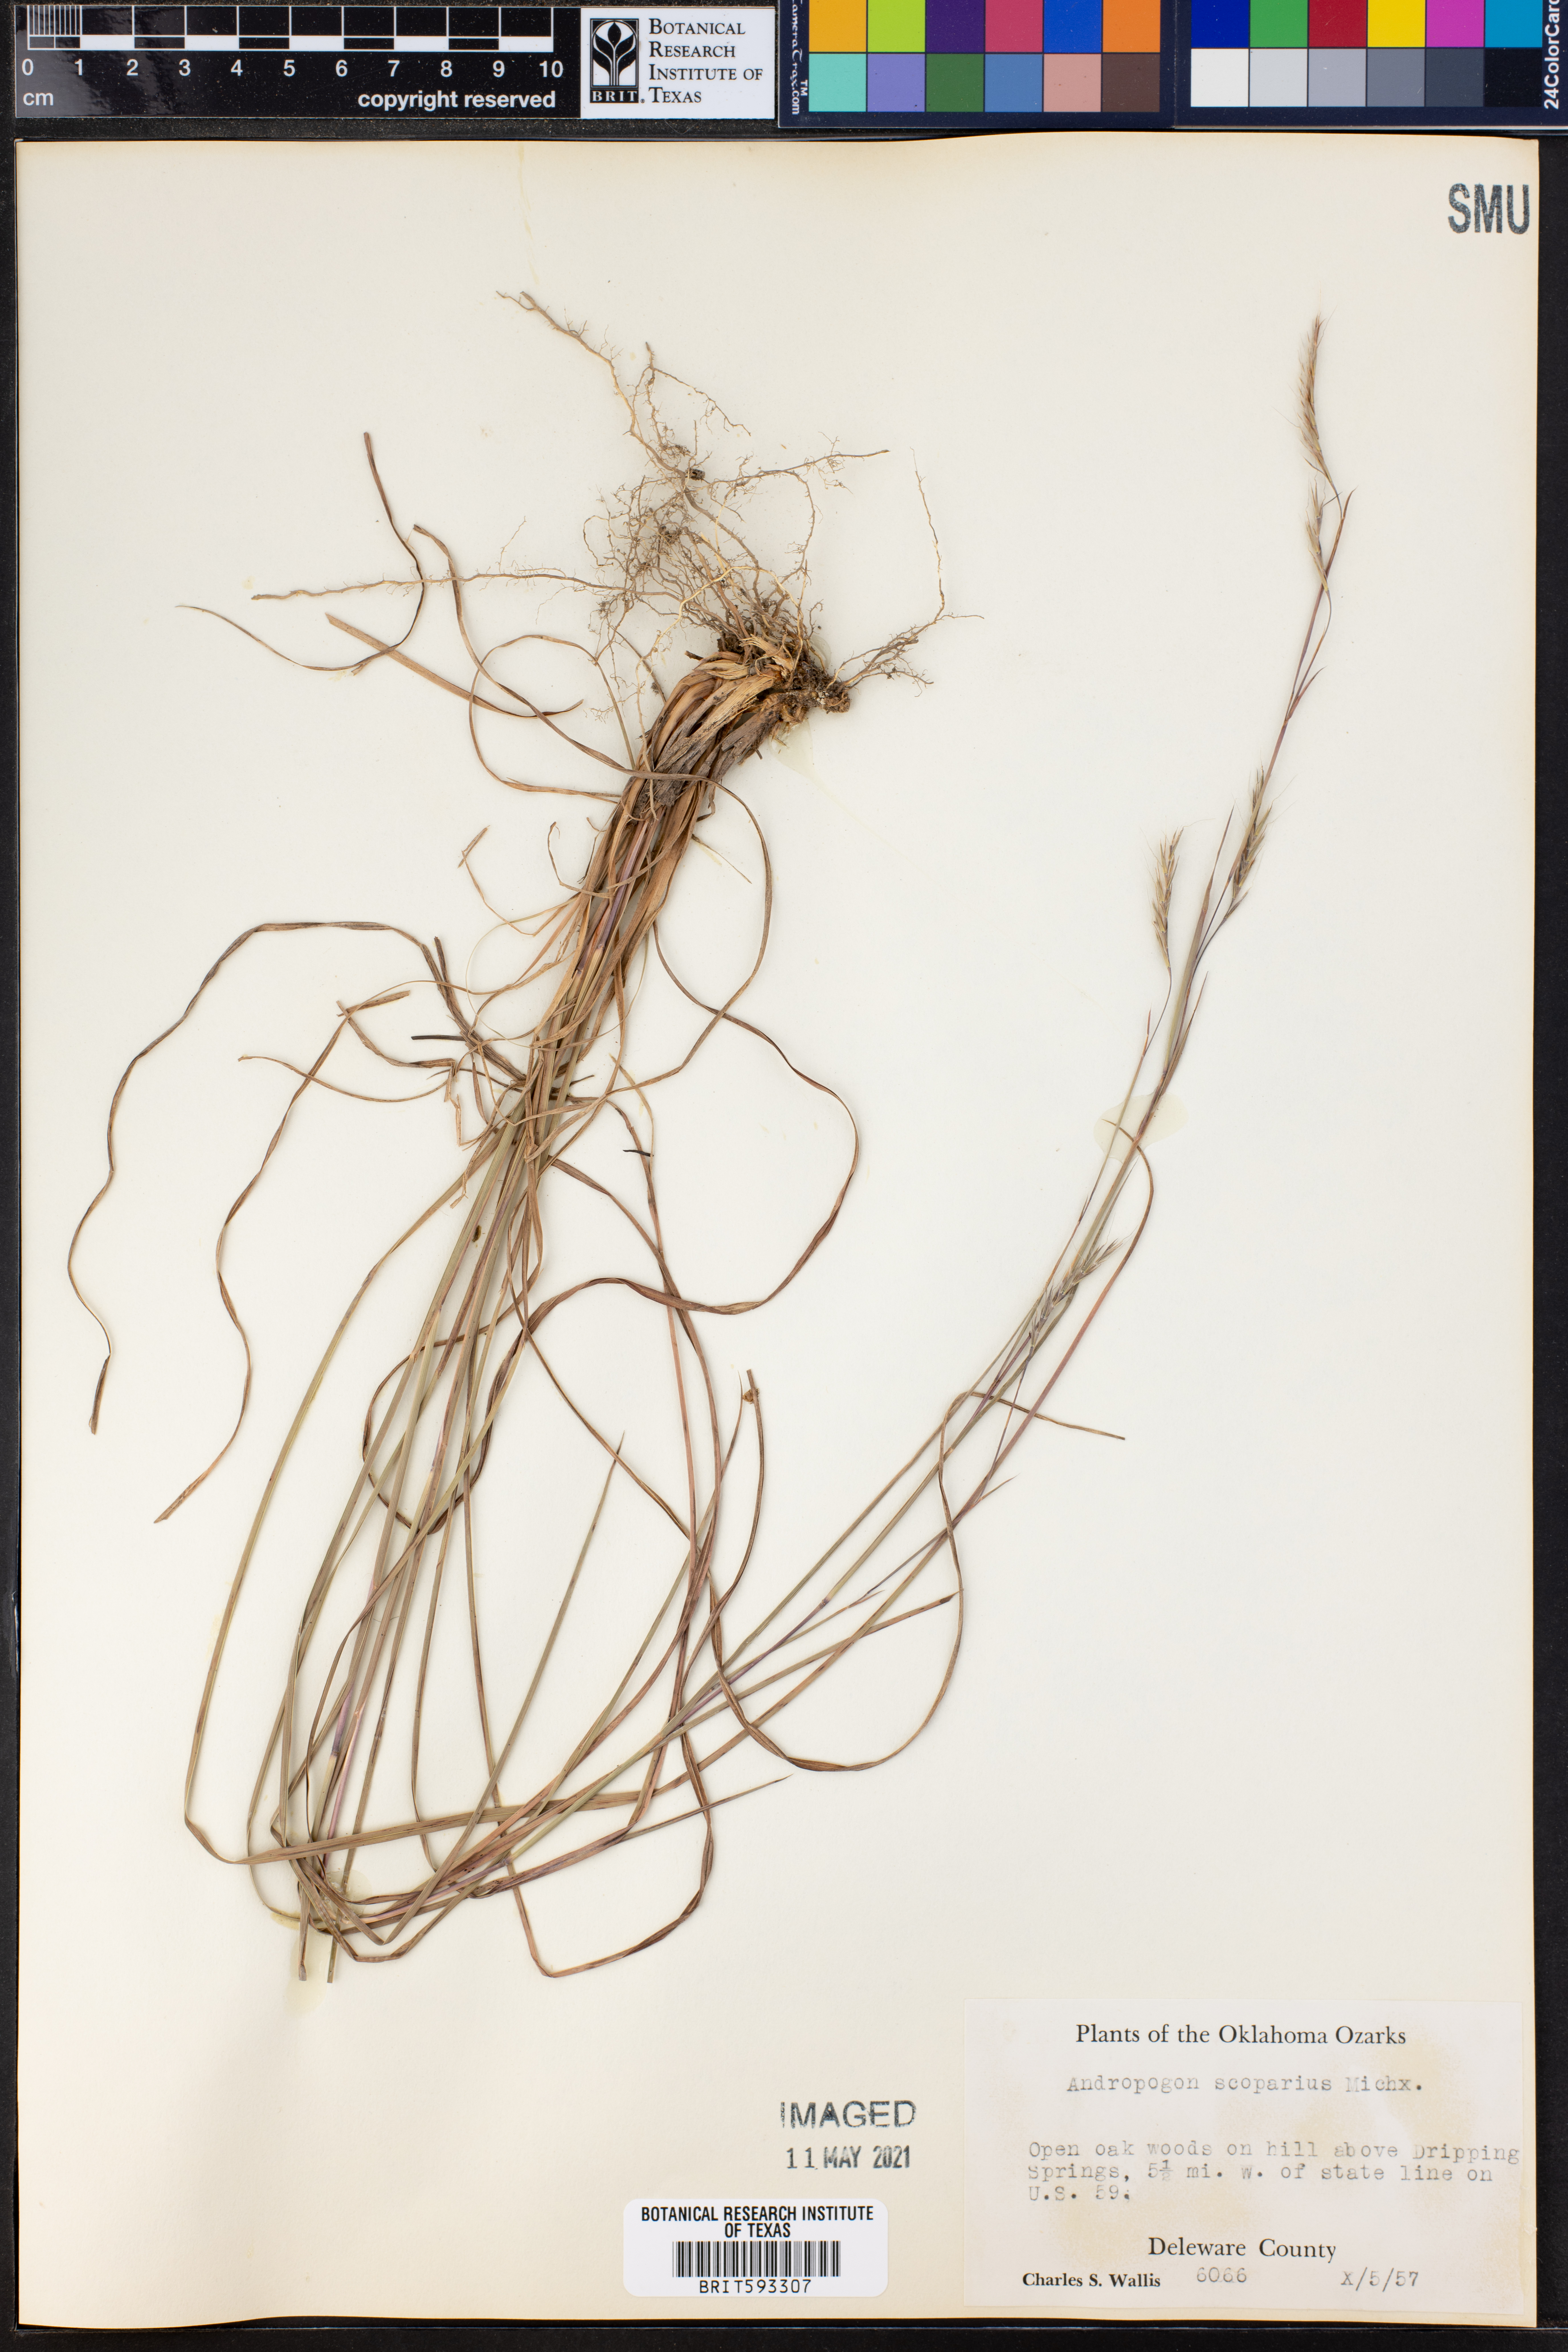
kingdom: Plantae
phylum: Tracheophyta
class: Liliopsida
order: Poales
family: Poaceae
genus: Schizachyrium
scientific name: Schizachyrium scoparium
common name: Little bluestem
